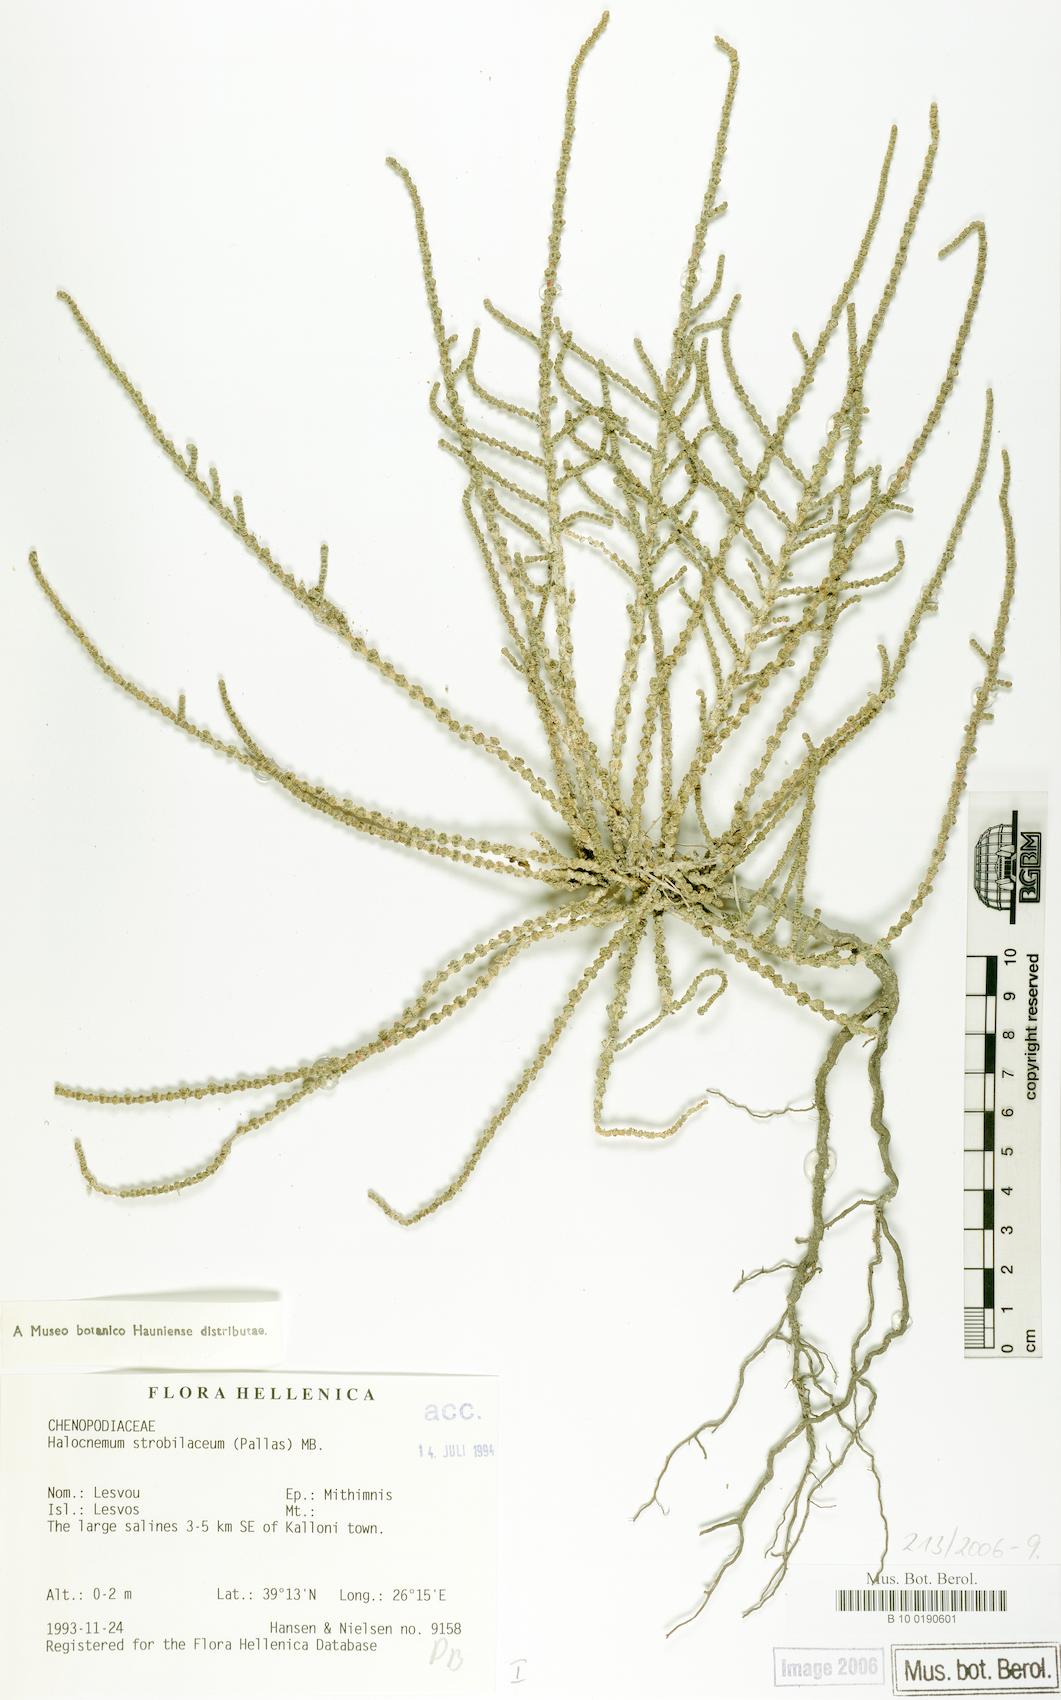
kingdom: Plantae
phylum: Tracheophyta
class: Magnoliopsida
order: Caryophyllales
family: Amaranthaceae
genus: Halocnemum
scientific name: Halocnemum strobilaceum
